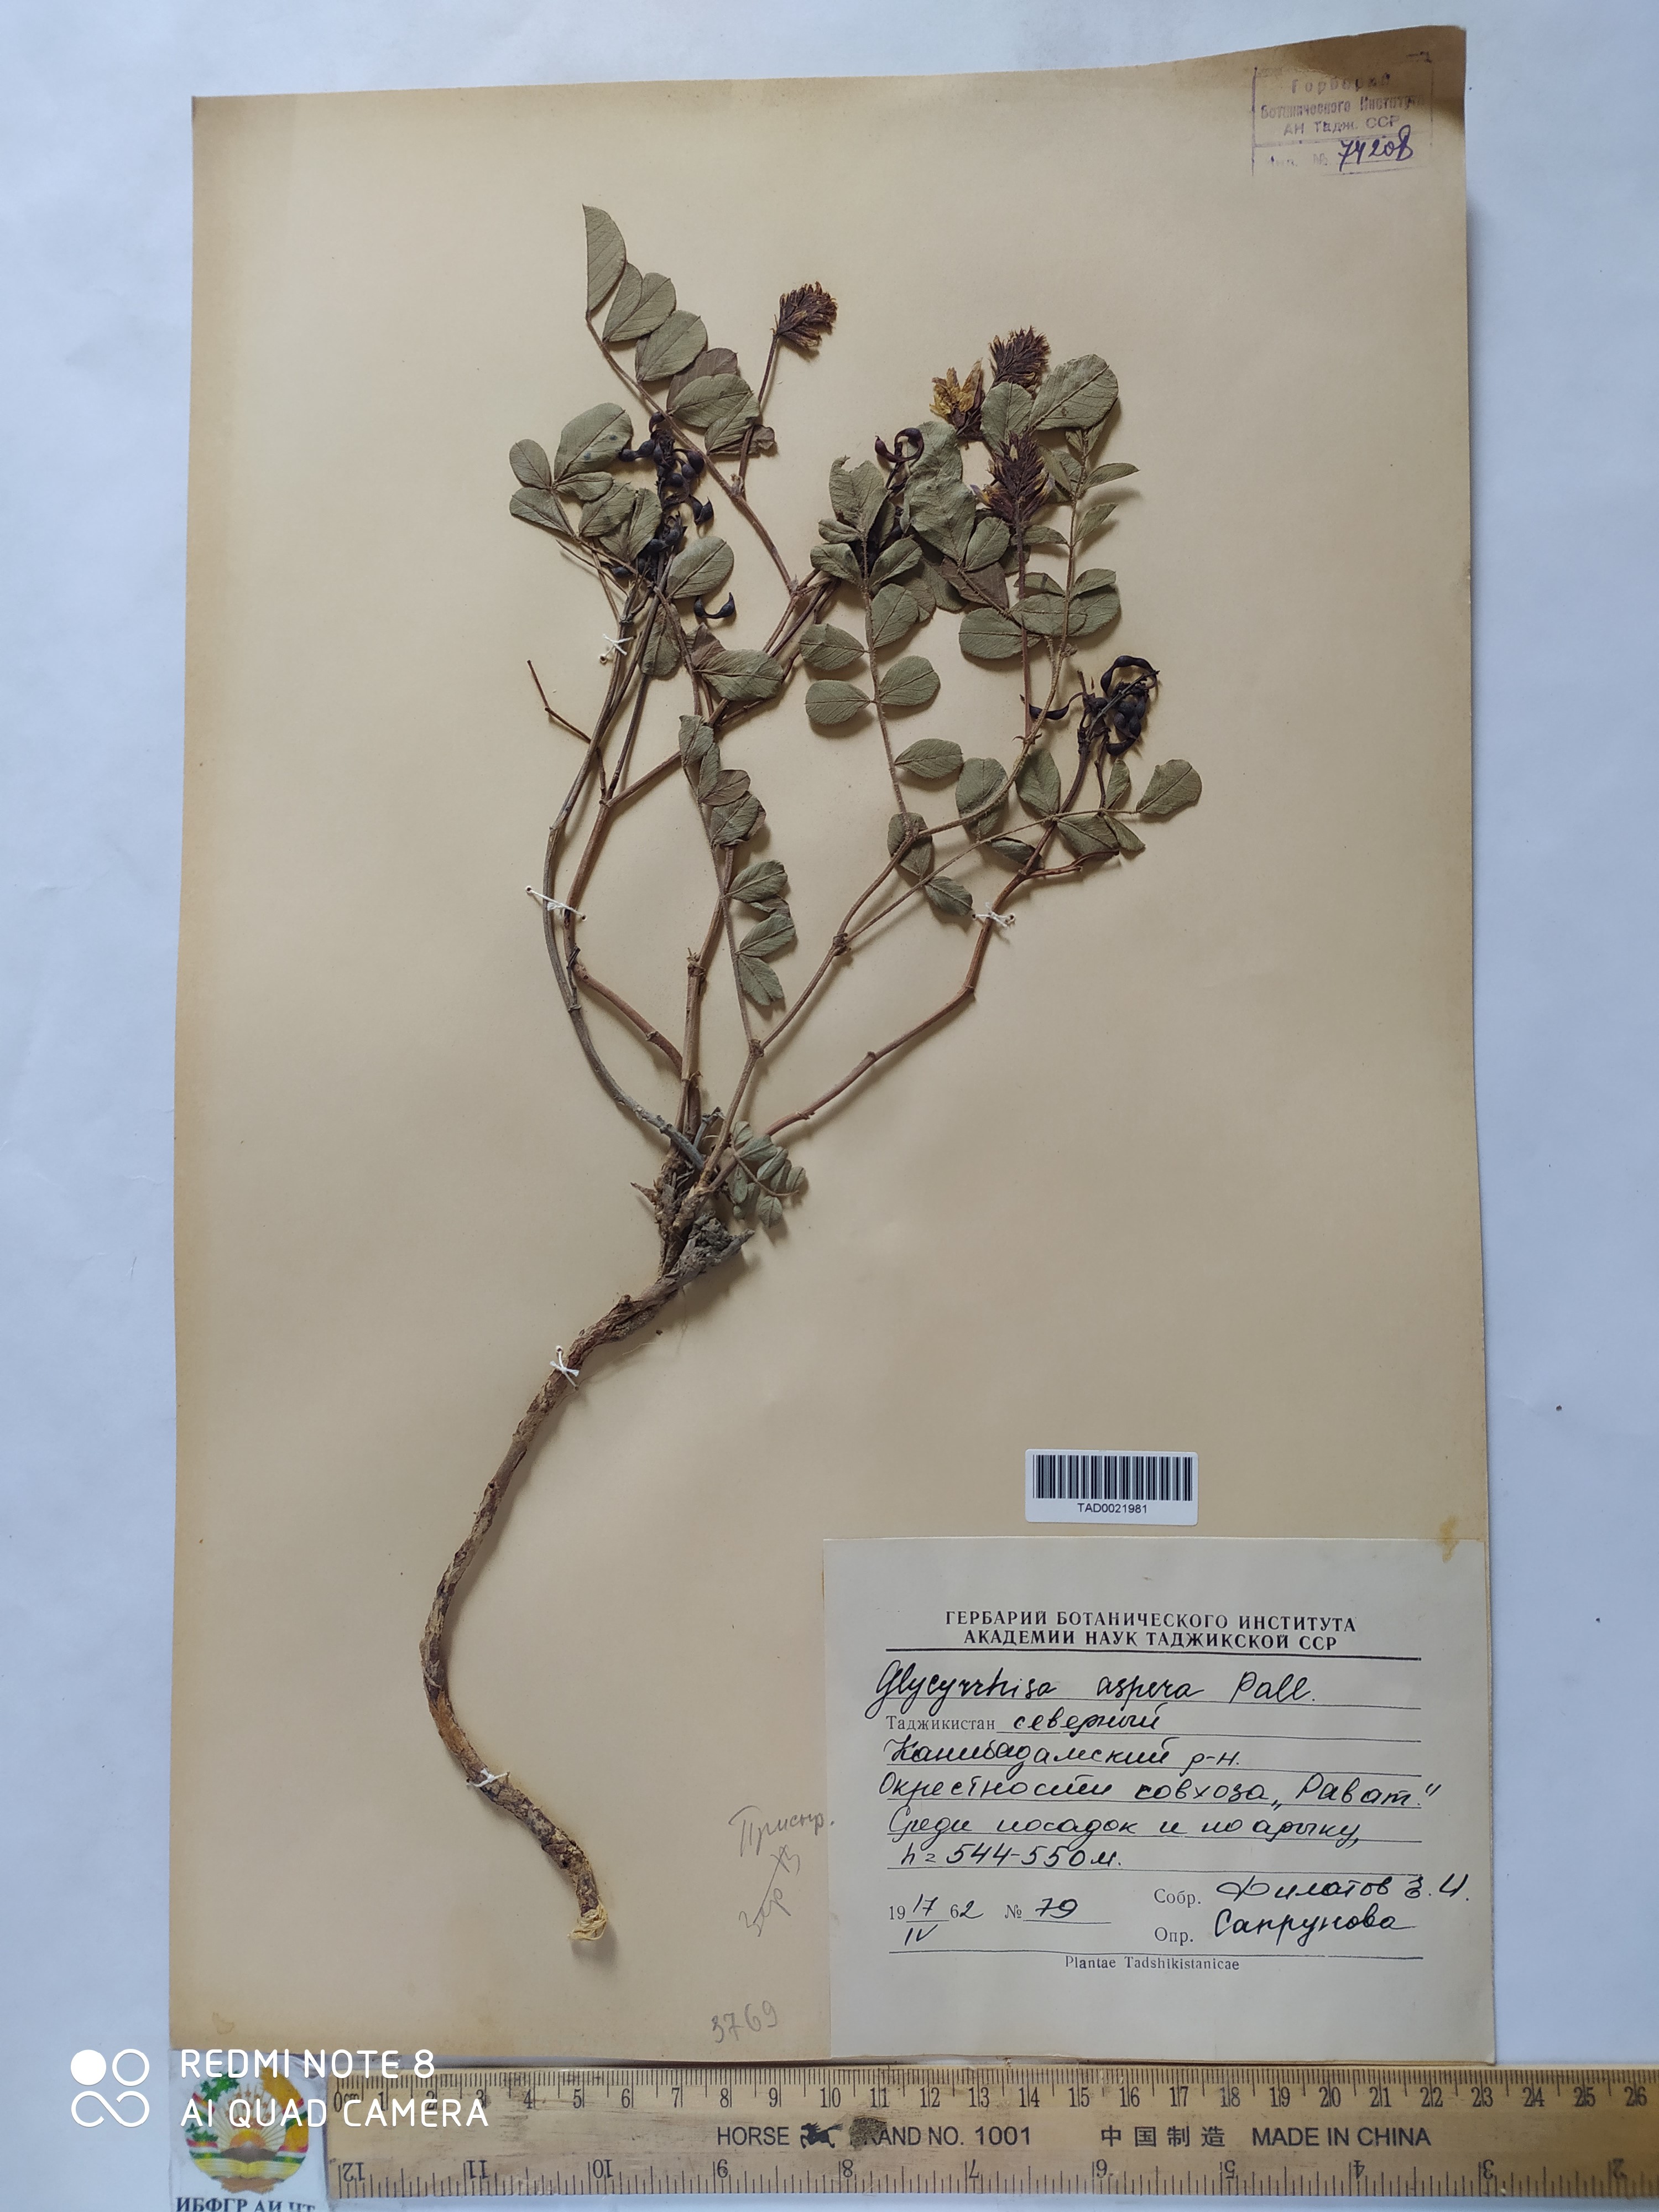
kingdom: Plantae
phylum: Tracheophyta
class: Magnoliopsida
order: Fabales
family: Fabaceae
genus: Glycyrrhiza
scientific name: Glycyrrhiza glabra
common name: Liquorice
